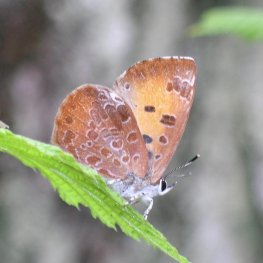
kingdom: Animalia
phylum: Arthropoda
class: Insecta
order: Lepidoptera
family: Lycaenidae
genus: Feniseca
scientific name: Feniseca tarquinius
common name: Harvester
